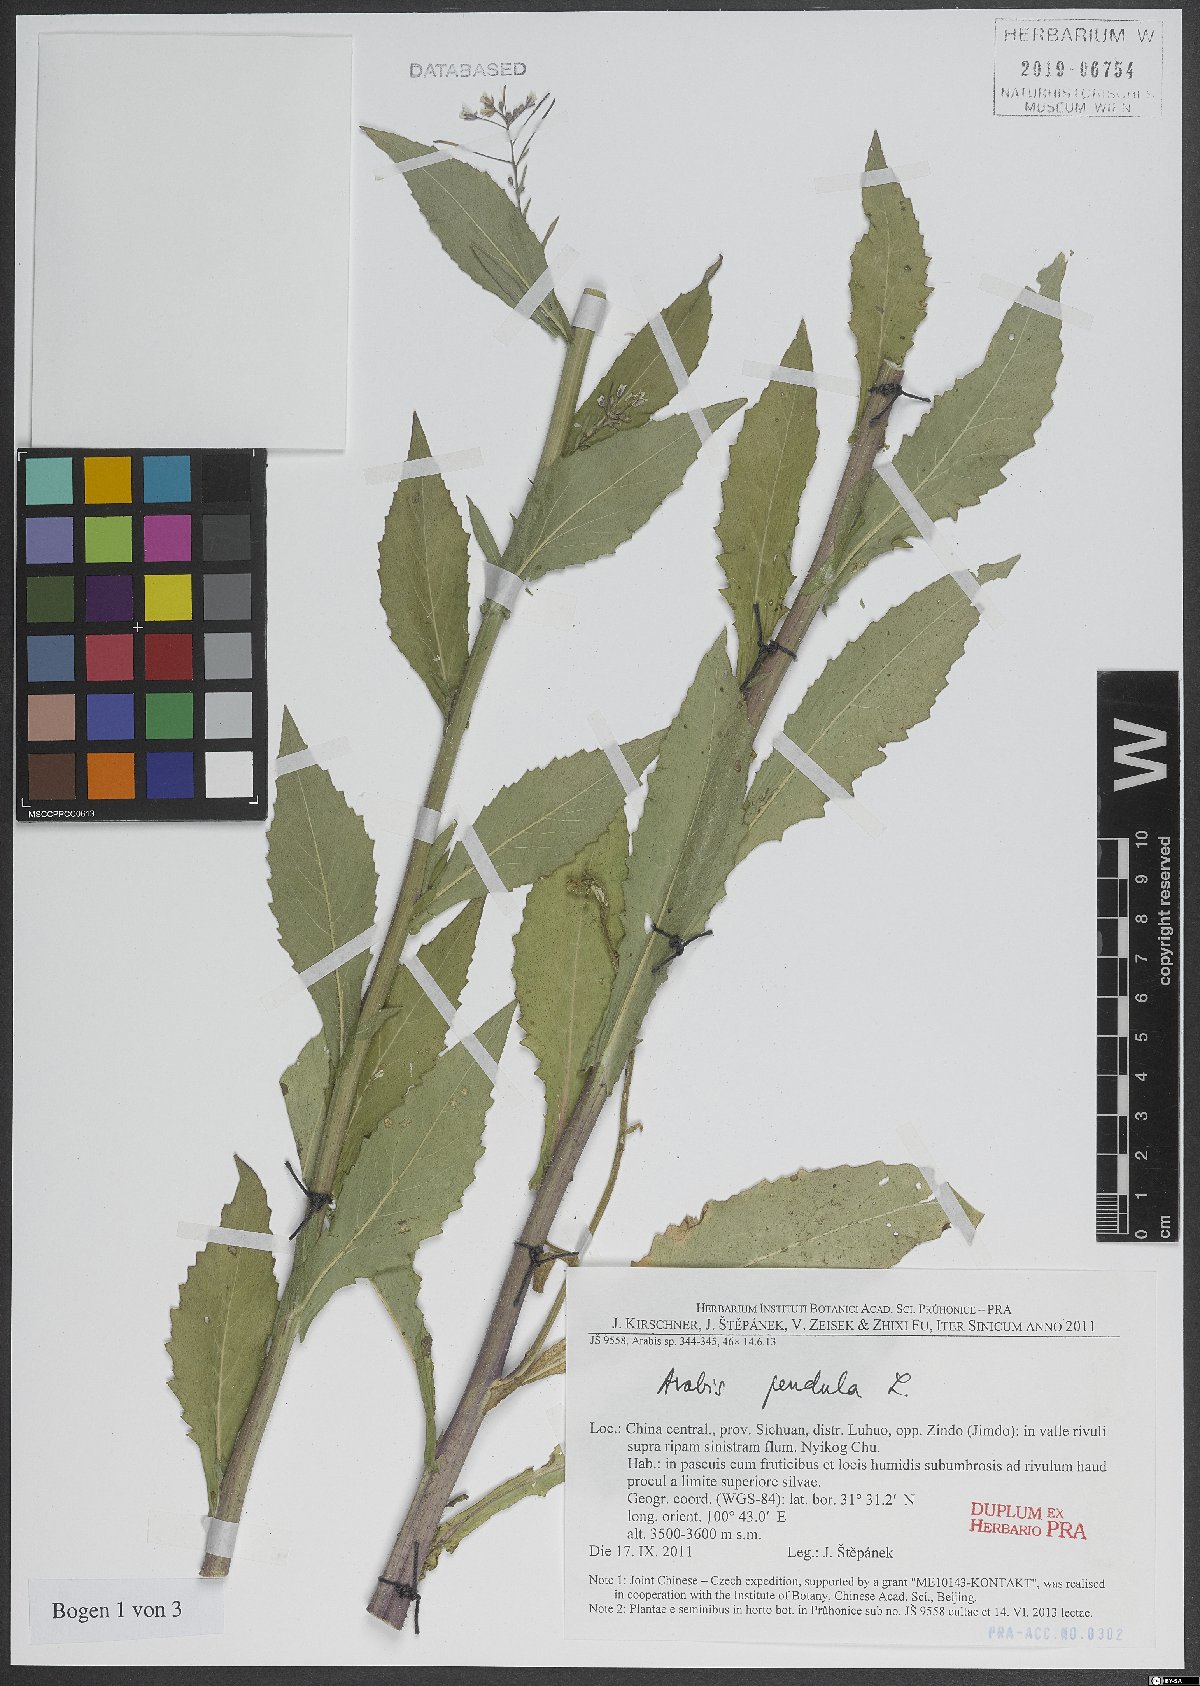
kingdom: Plantae
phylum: Tracheophyta
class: Magnoliopsida
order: Brassicales
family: Brassicaceae
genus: Catolobus
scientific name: Catolobus pendulus
